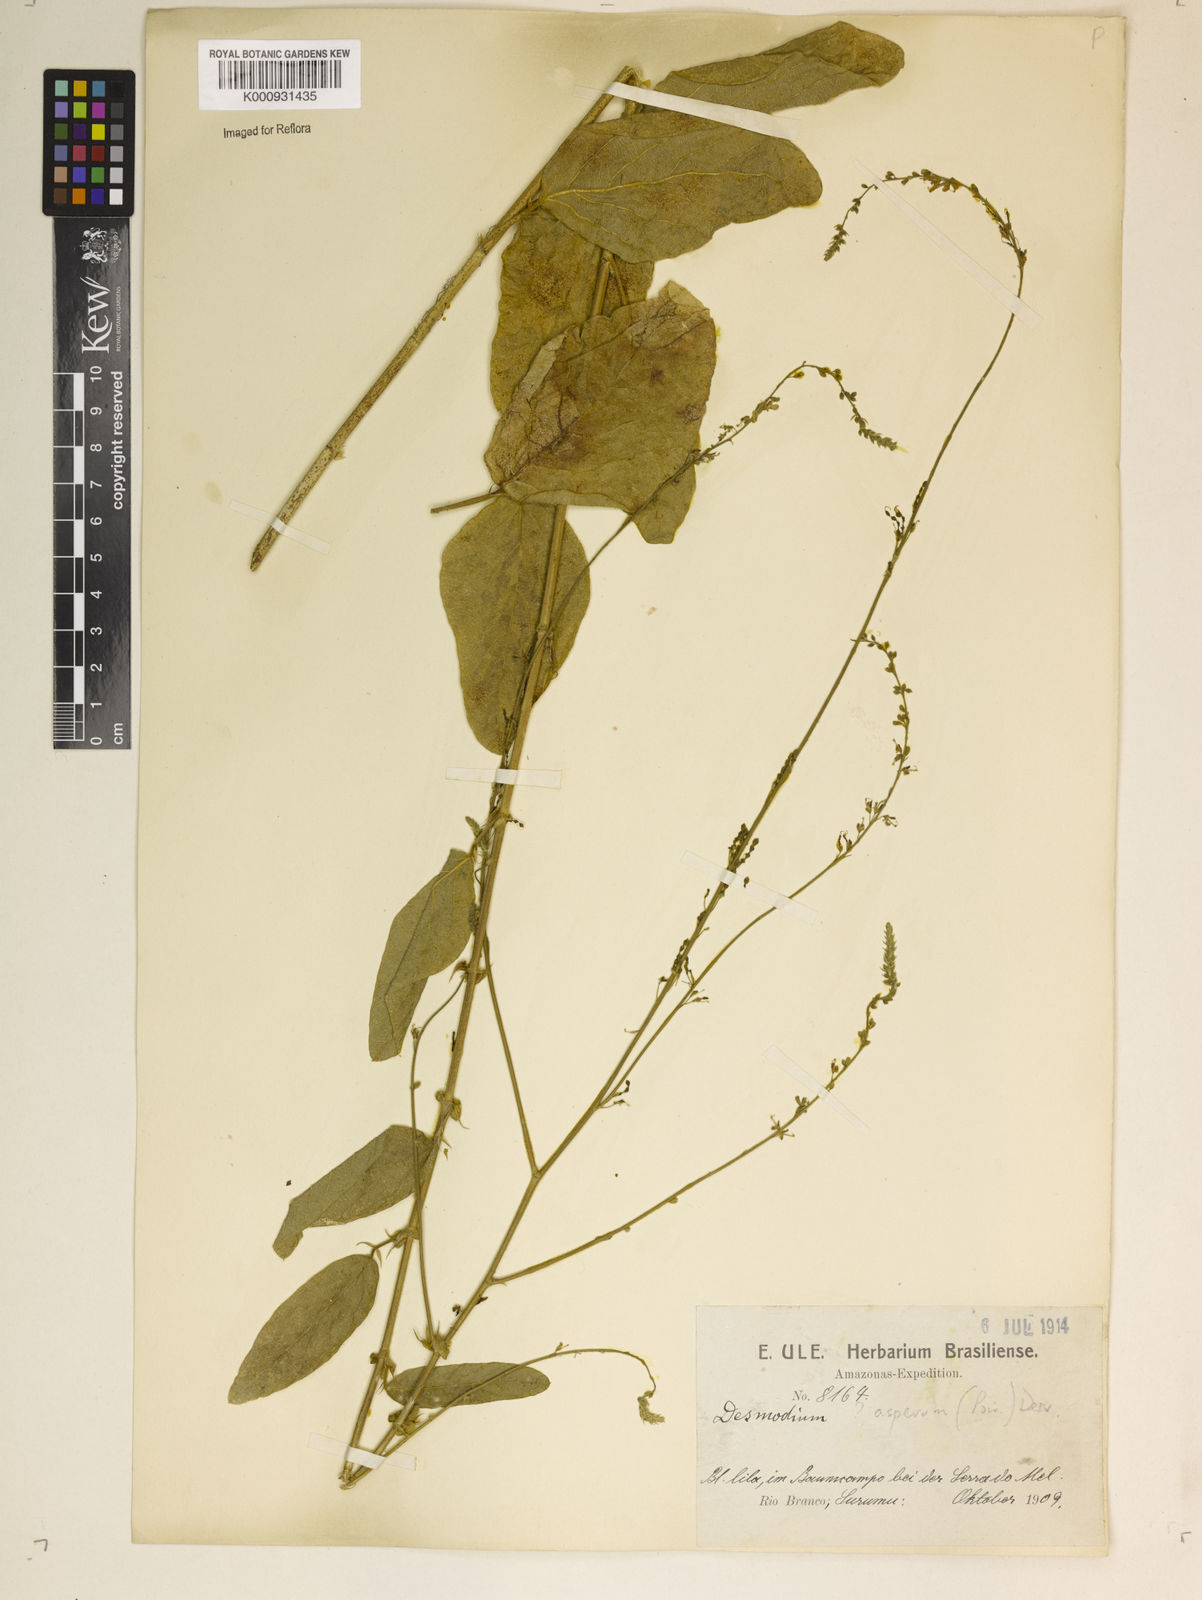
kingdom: Plantae
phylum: Tracheophyta
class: Magnoliopsida
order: Fabales
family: Fabaceae
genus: Desmodium
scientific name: Desmodium distortum
